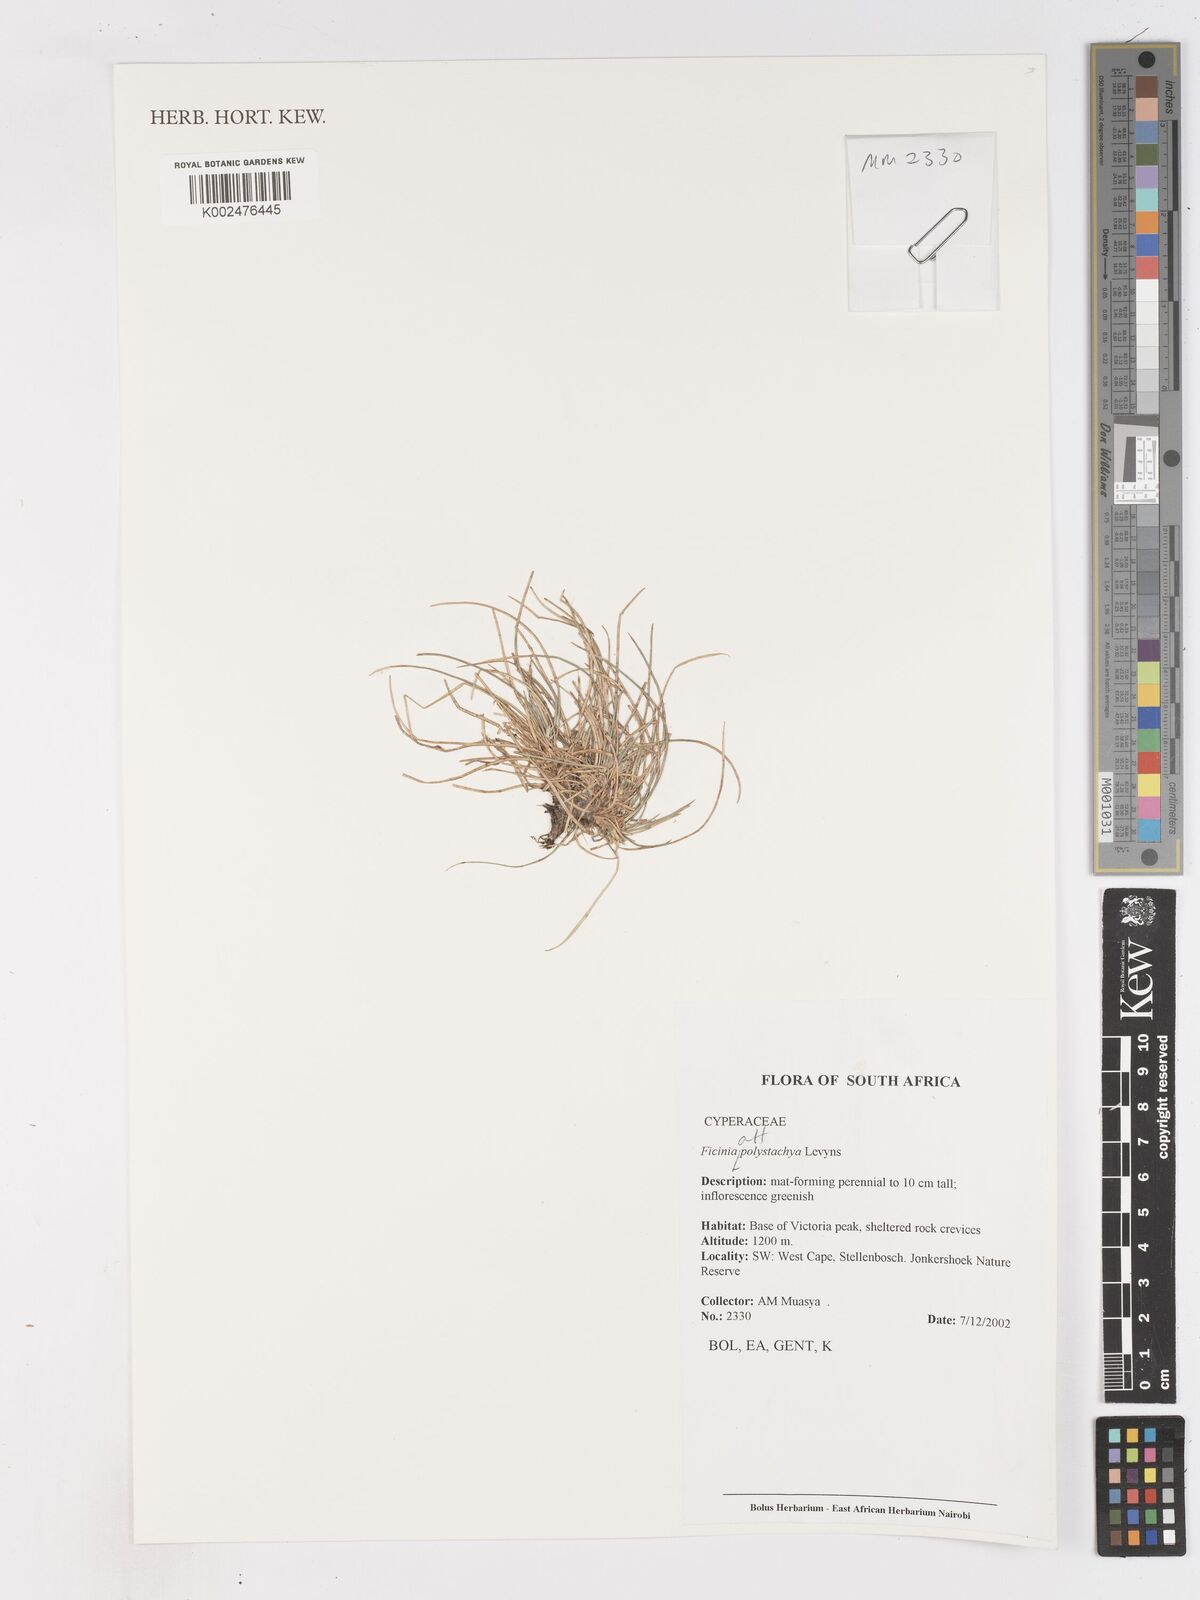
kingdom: Plantae
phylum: Tracheophyta
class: Liliopsida
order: Poales
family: Cyperaceae
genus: Ficinia
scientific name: Ficinia polystachya
